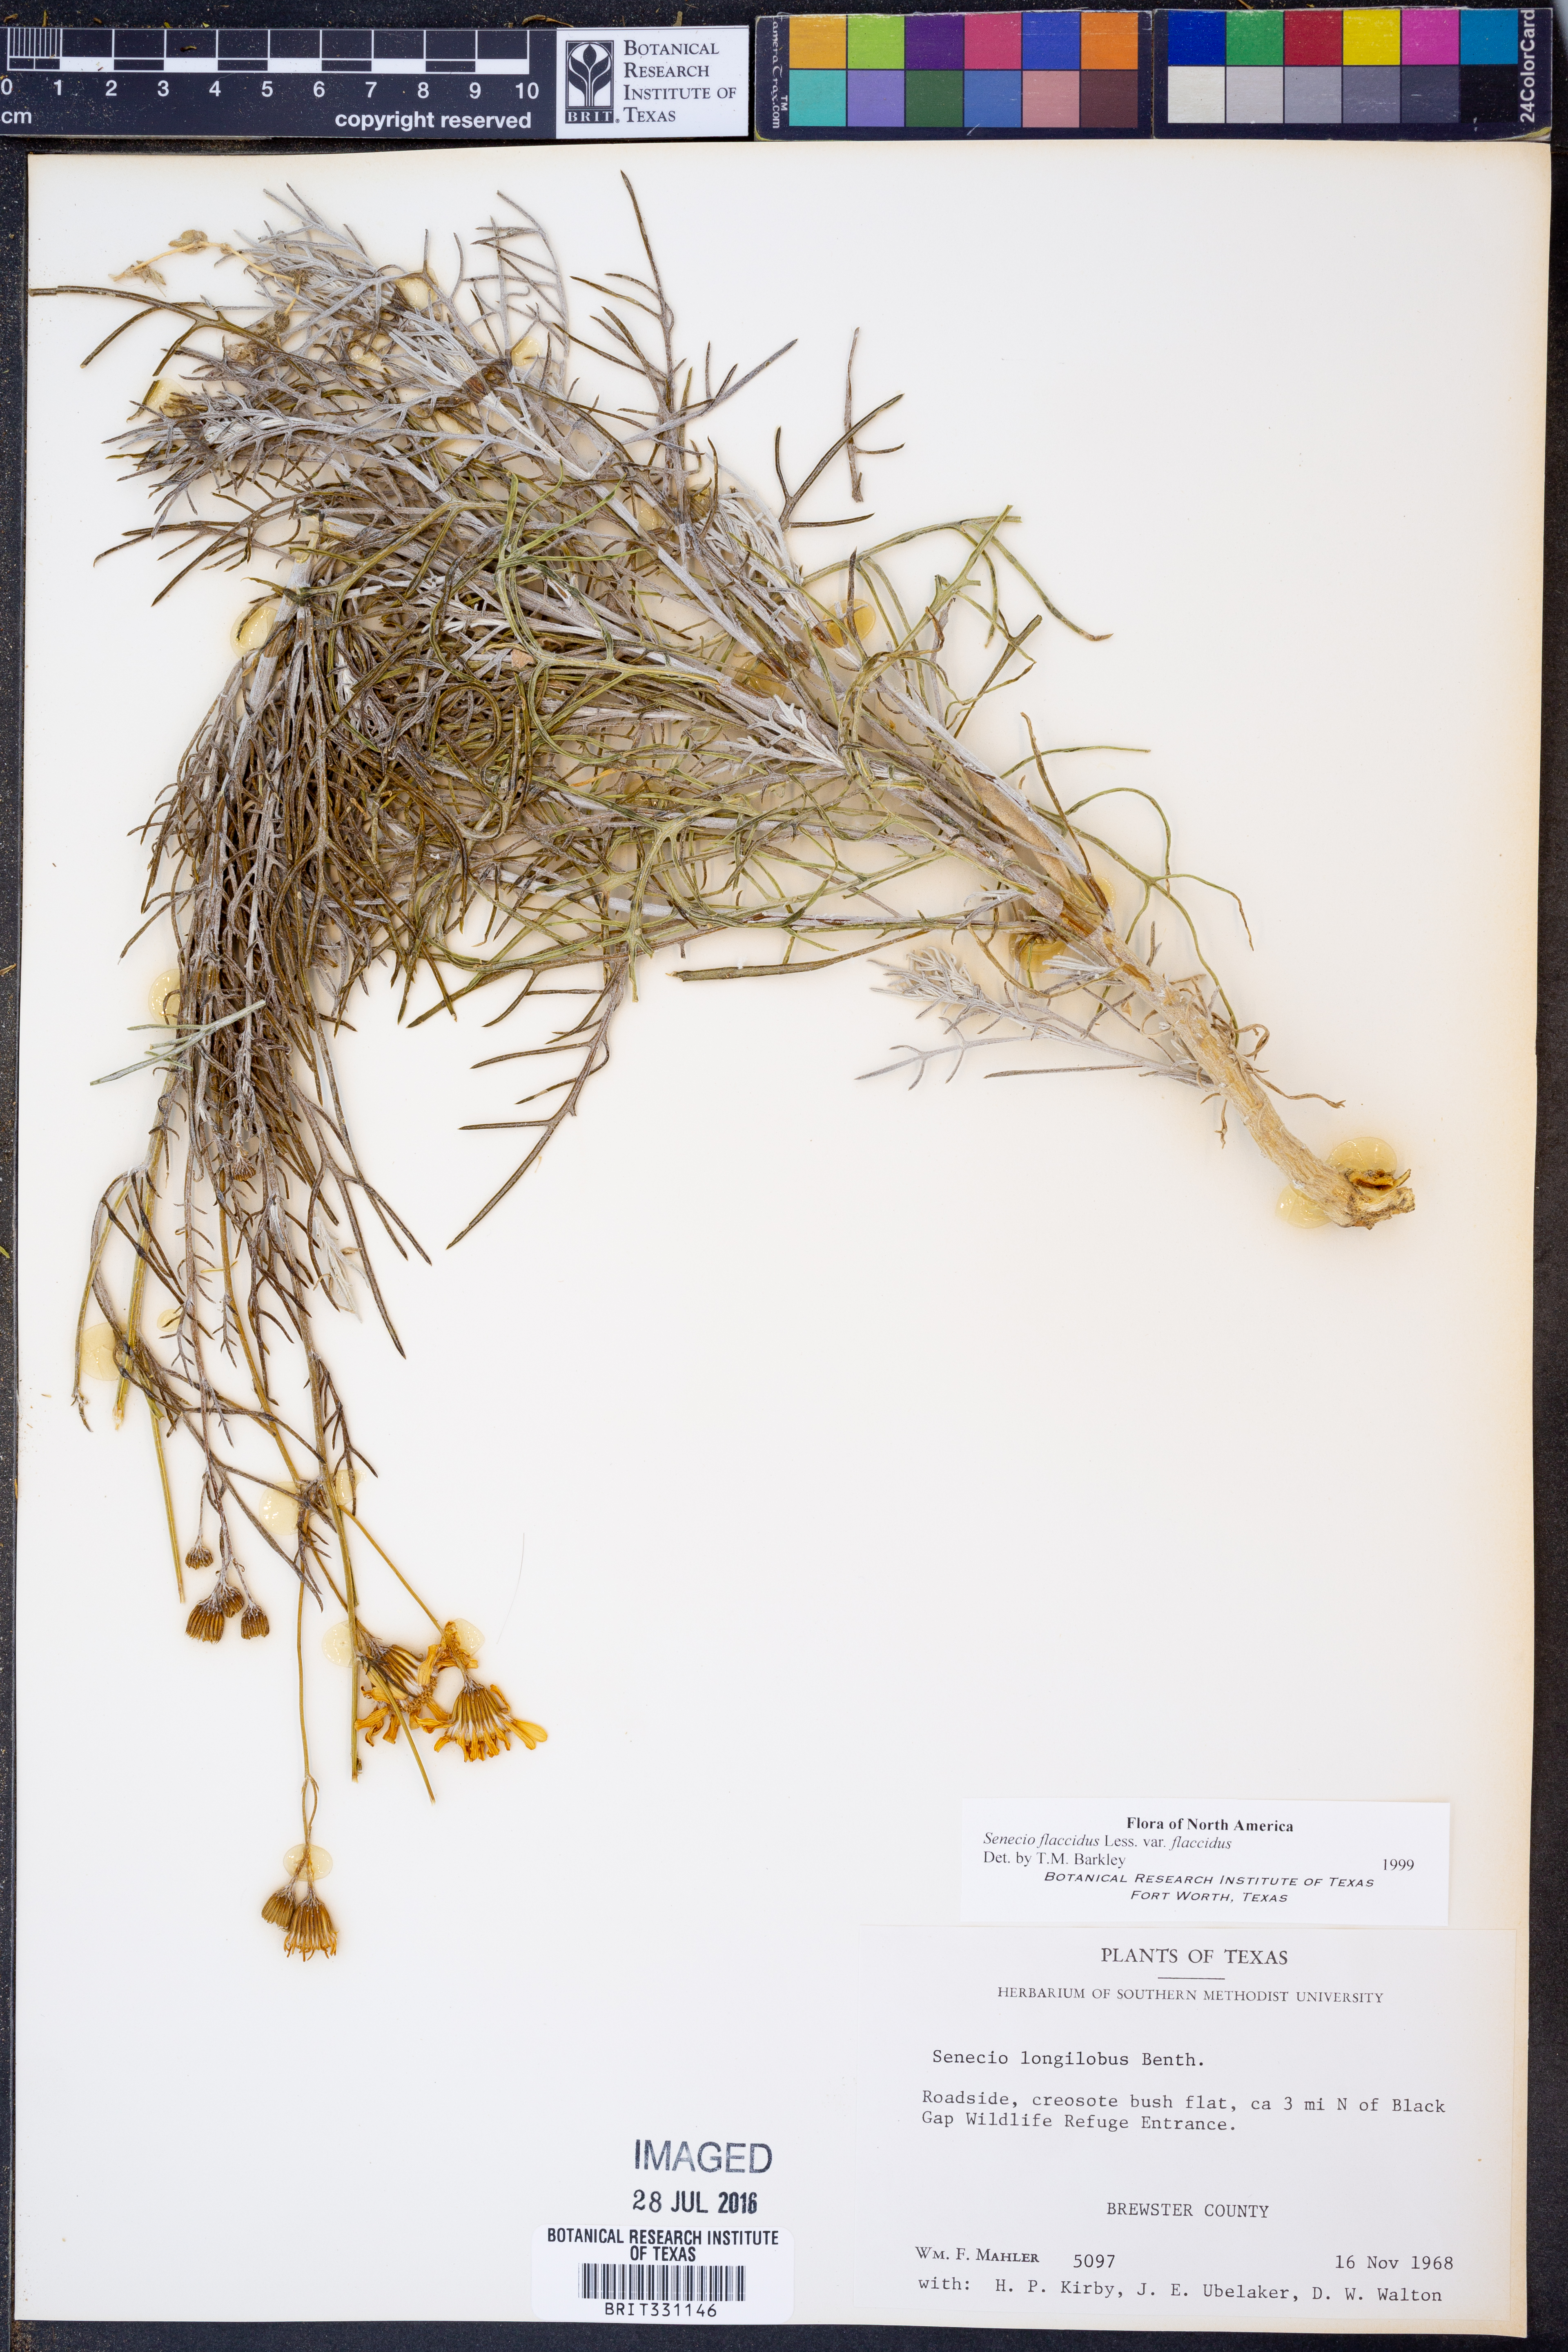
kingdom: Plantae
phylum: Tracheophyta
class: Magnoliopsida
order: Asterales
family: Asteraceae
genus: Senecio
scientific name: Senecio flaccidus
